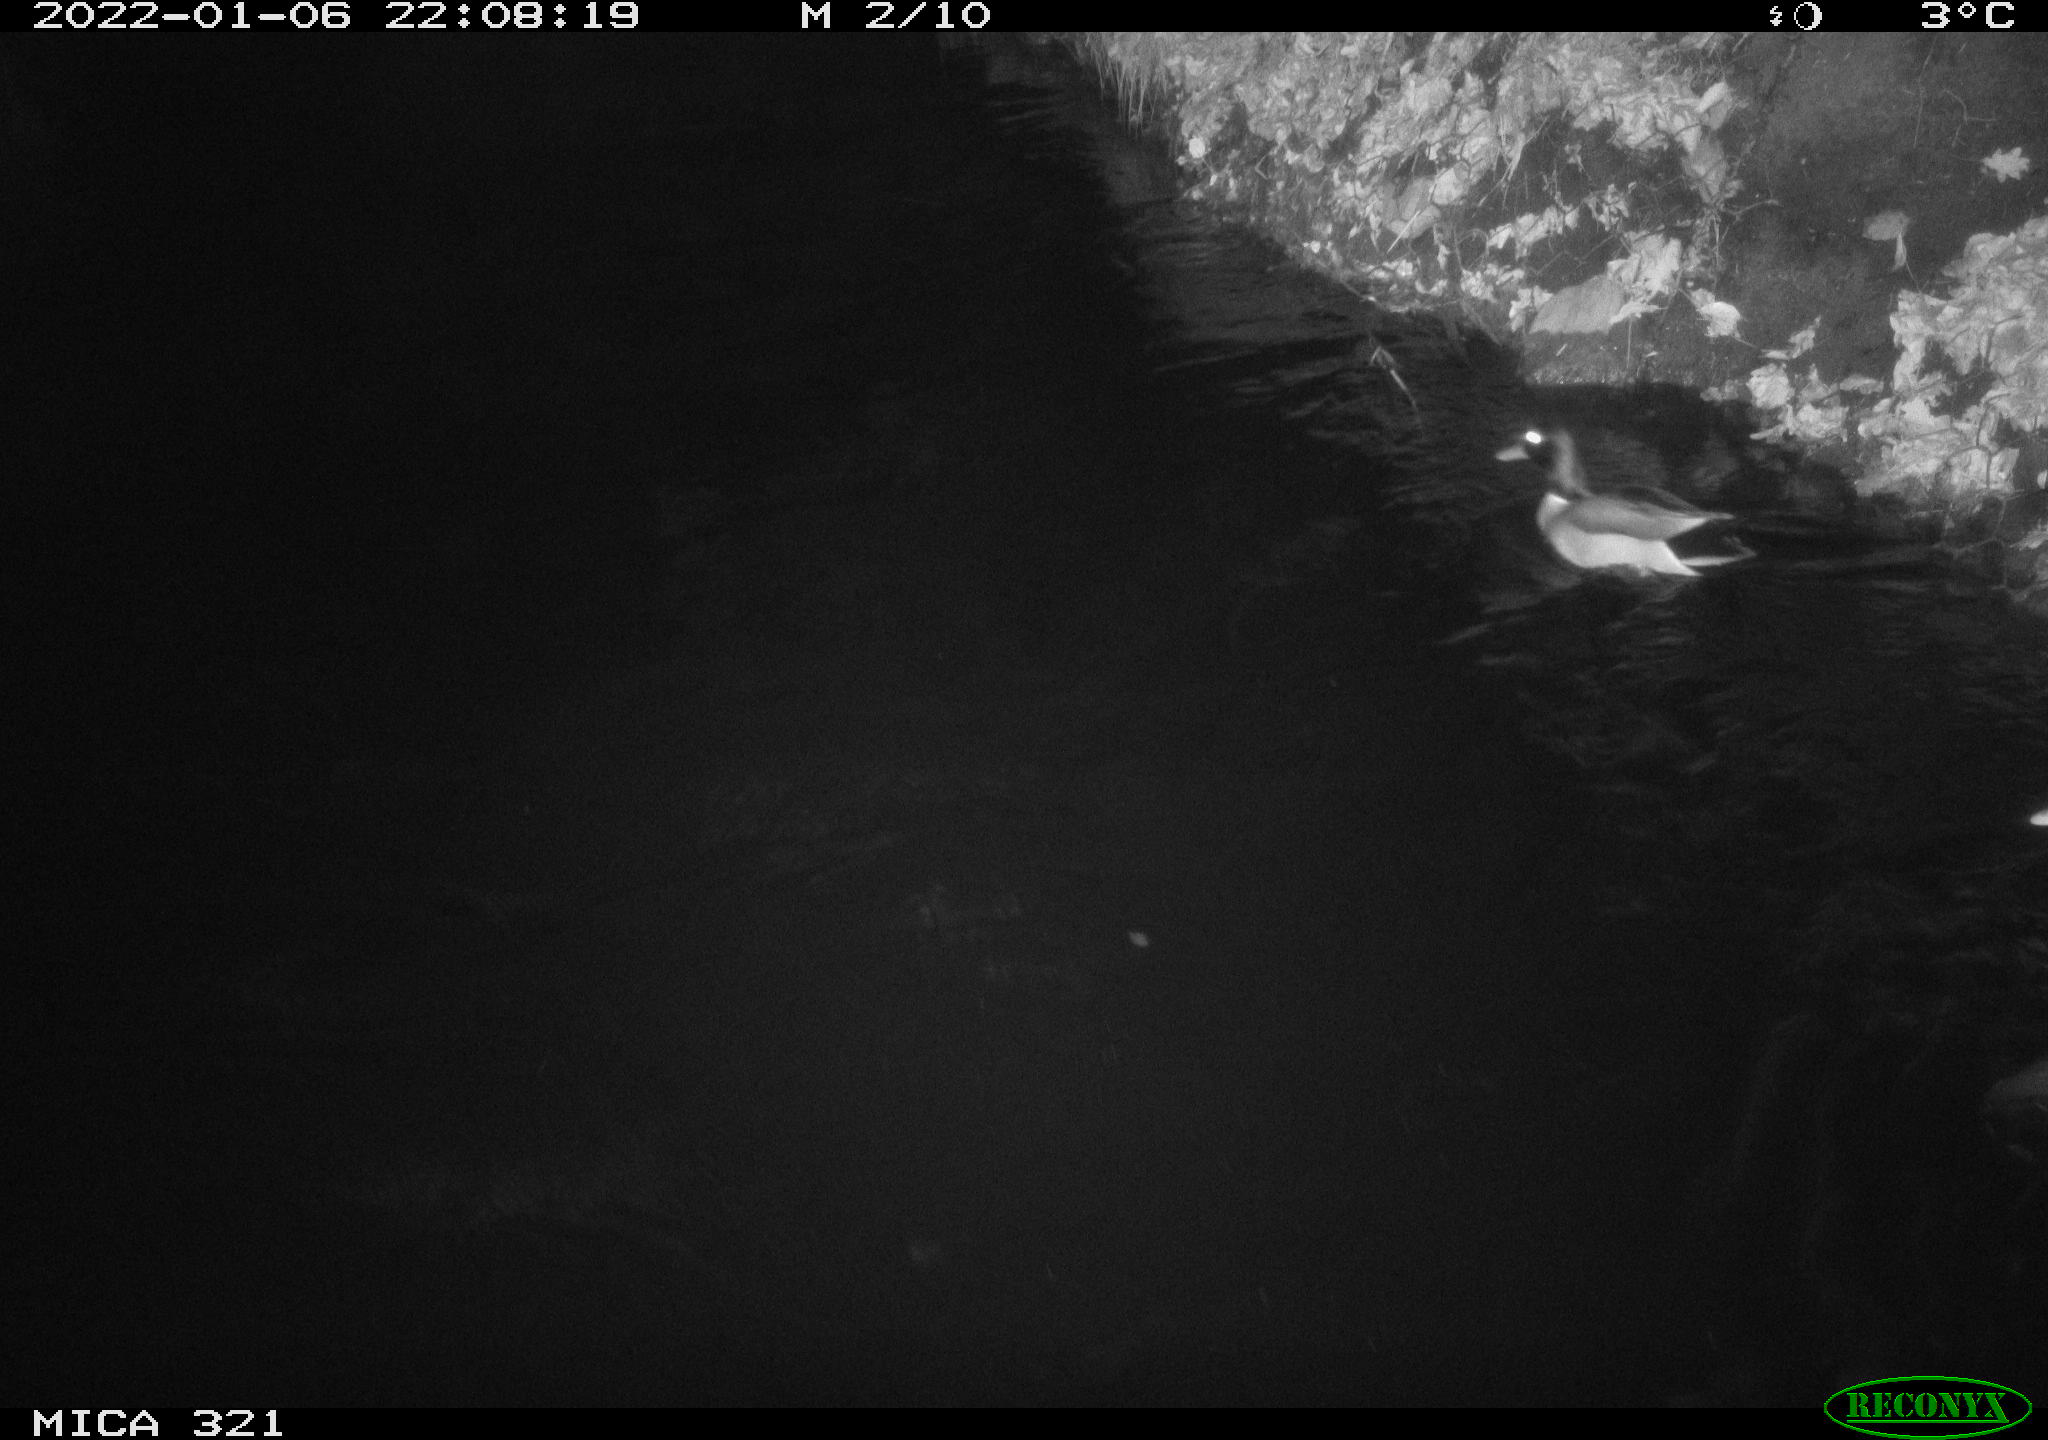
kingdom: Animalia
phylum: Chordata
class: Aves
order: Anseriformes
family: Anatidae
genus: Anas
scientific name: Anas
